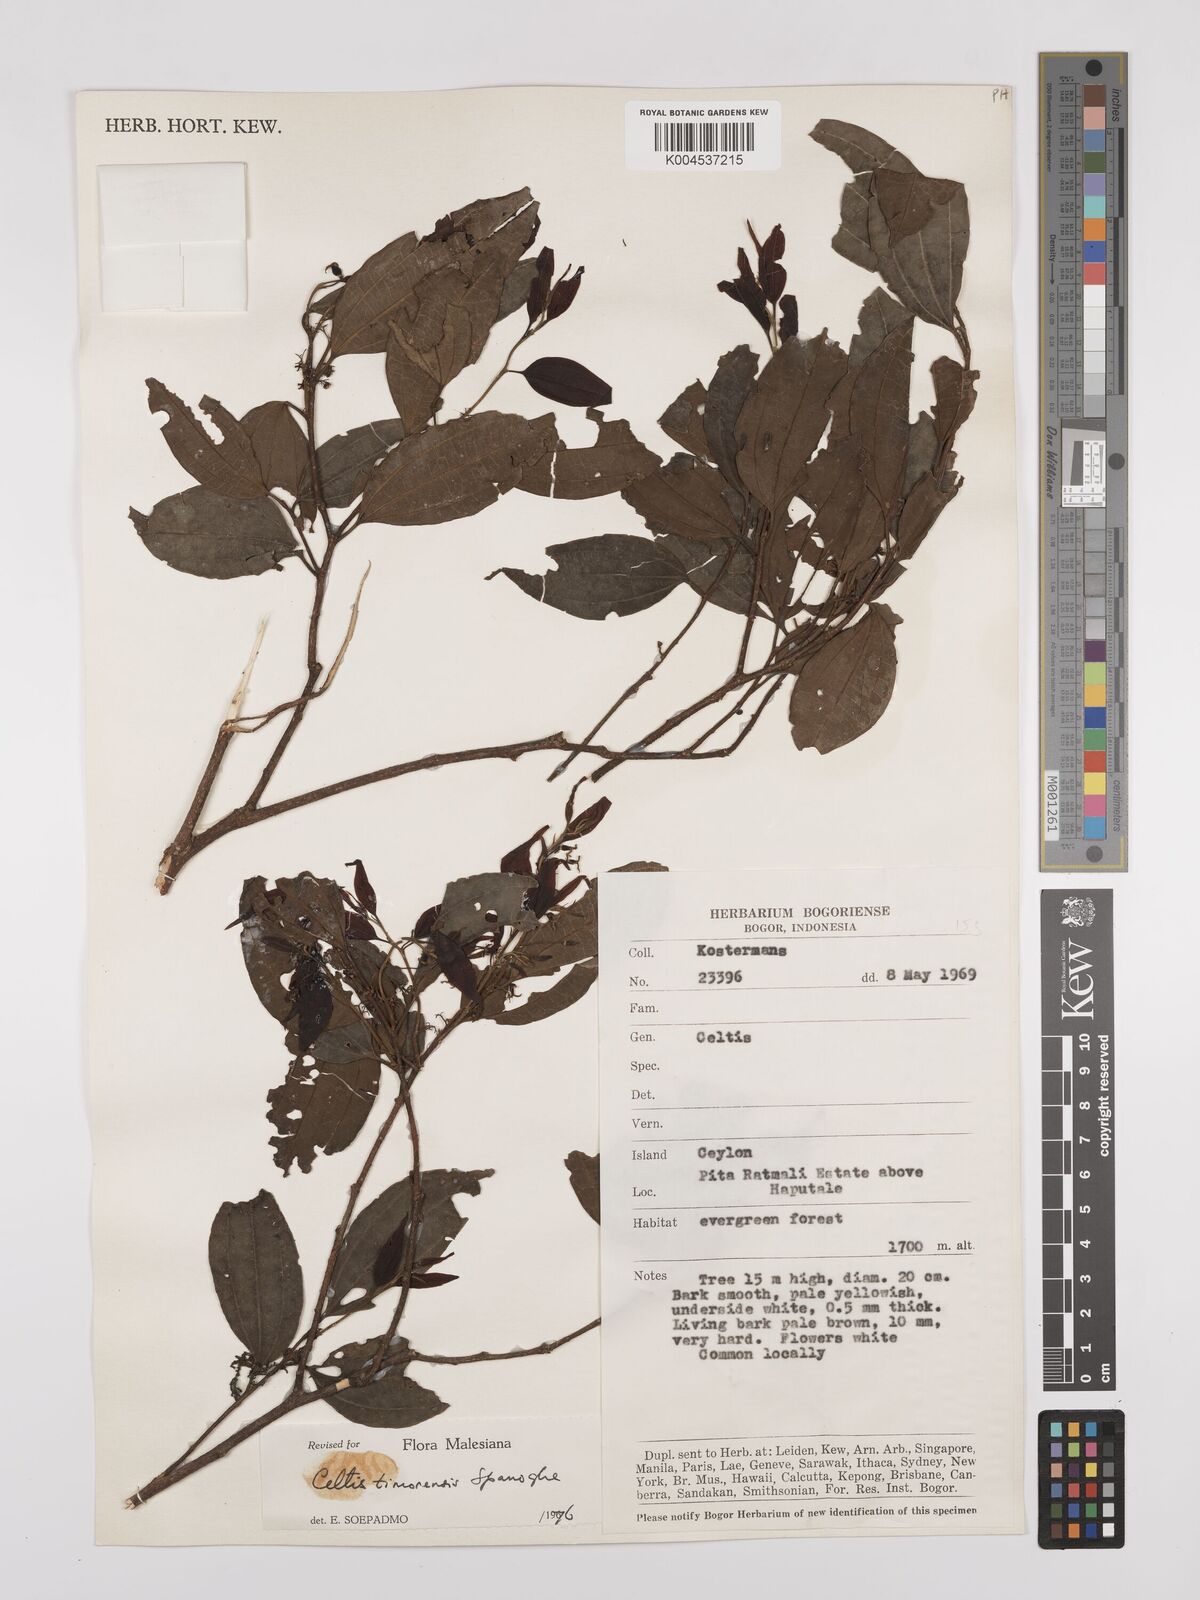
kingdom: Plantae
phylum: Tracheophyta
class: Magnoliopsida
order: Rosales
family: Cannabaceae
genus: Celtis
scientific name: Celtis timorensis
